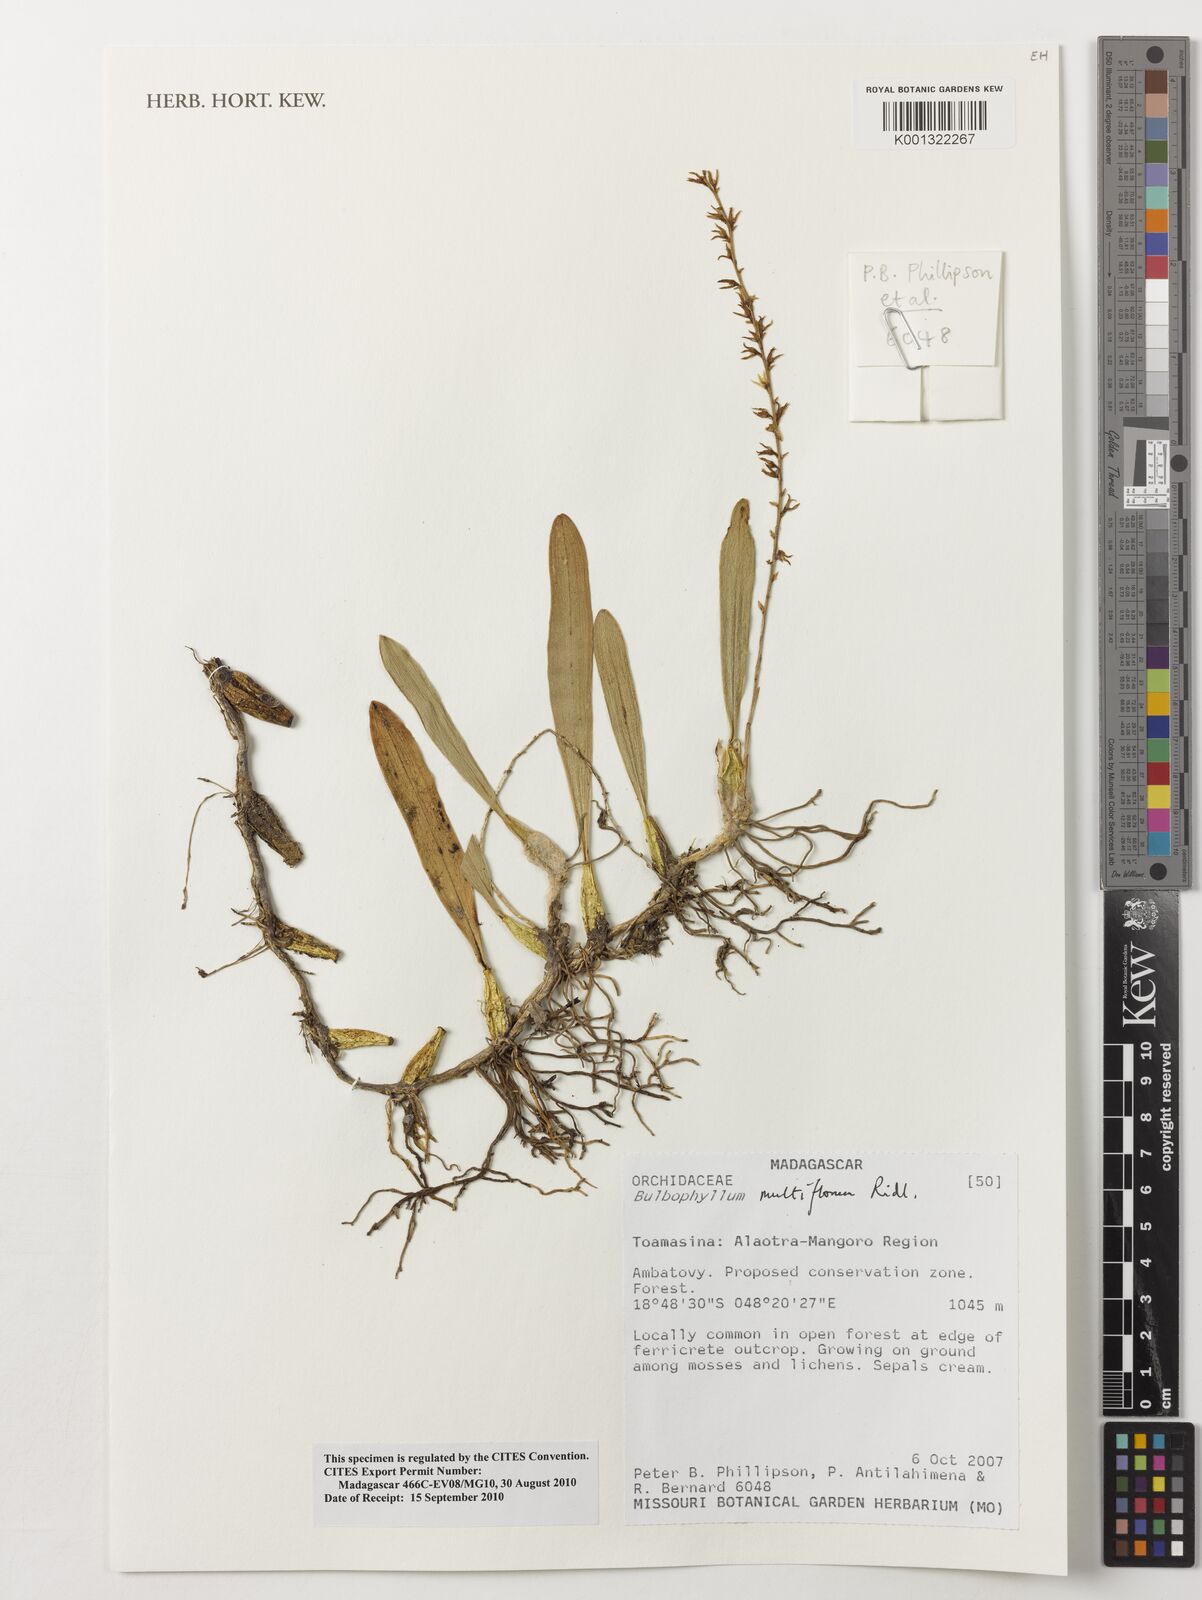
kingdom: Plantae
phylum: Tracheophyta
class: Liliopsida
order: Asparagales
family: Orchidaceae
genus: Bulbophyllum
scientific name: Bulbophyllum multiflorum
